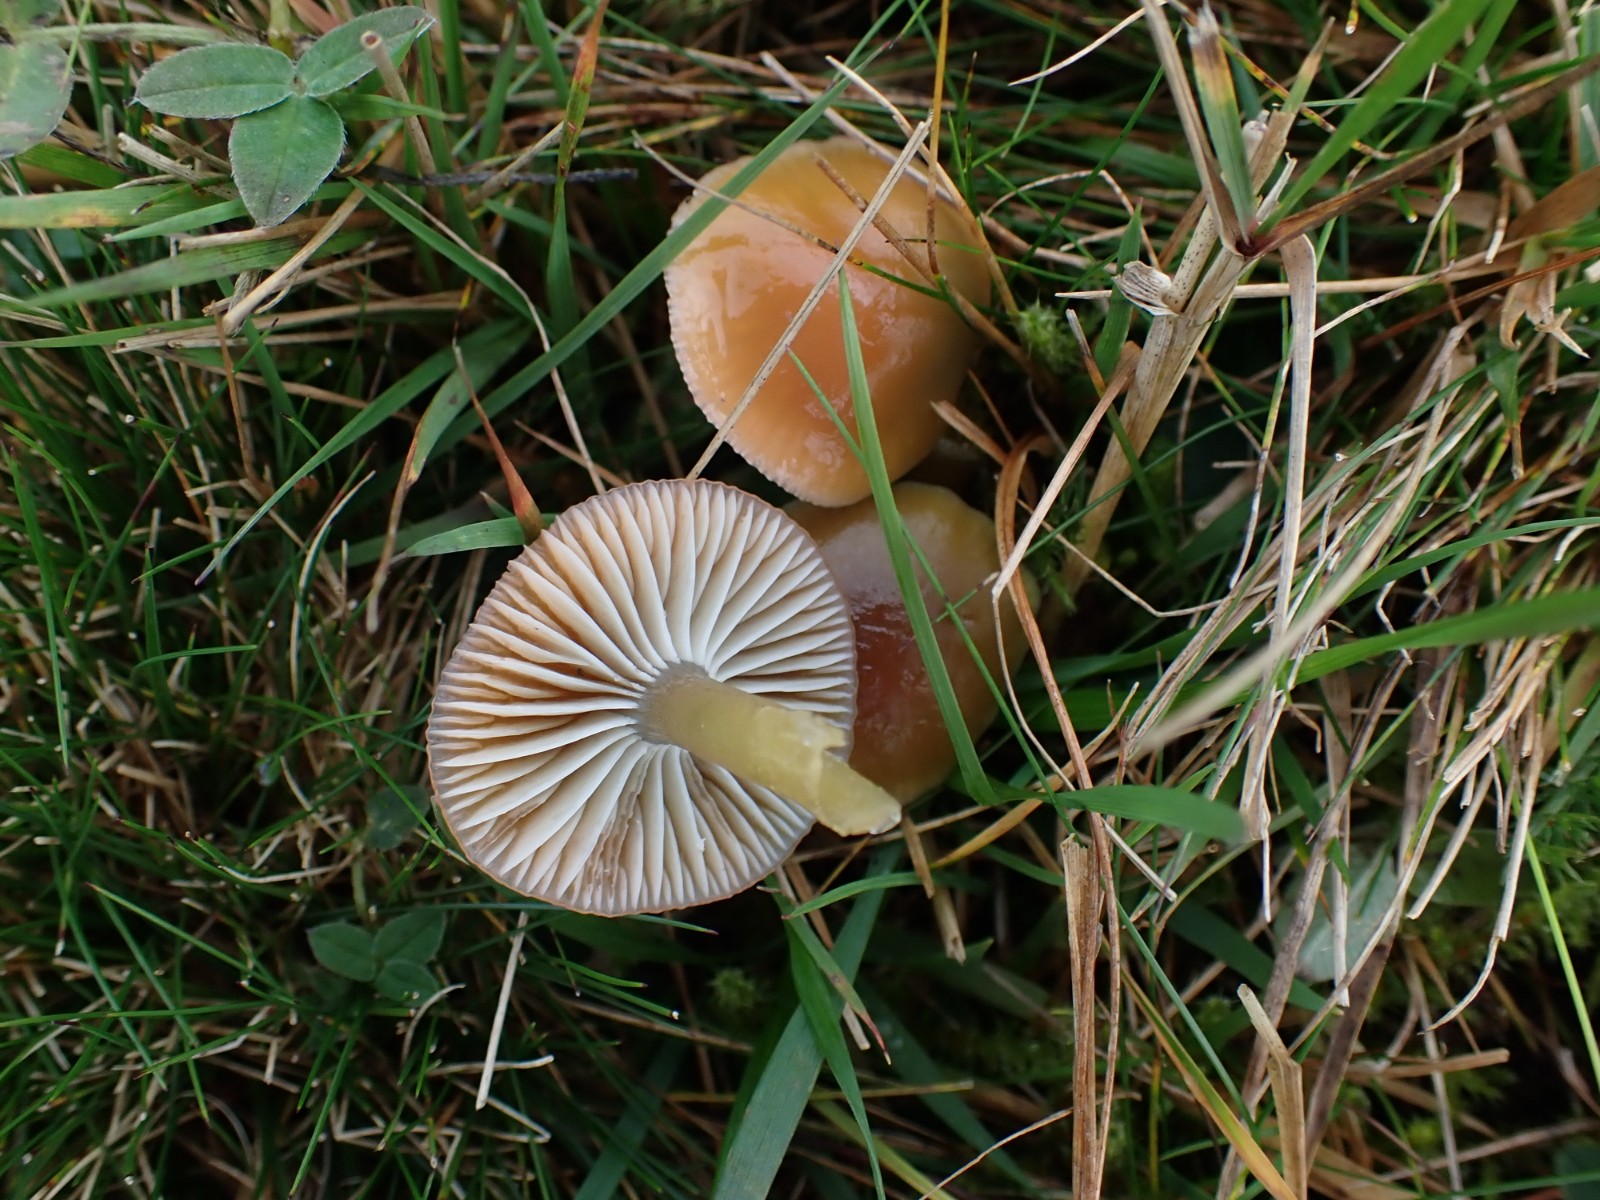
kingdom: Fungi
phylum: Basidiomycota
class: Agaricomycetes
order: Agaricales
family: Hygrophoraceae
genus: Gliophorus
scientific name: Gliophorus laetus
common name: brusk-vokshat
